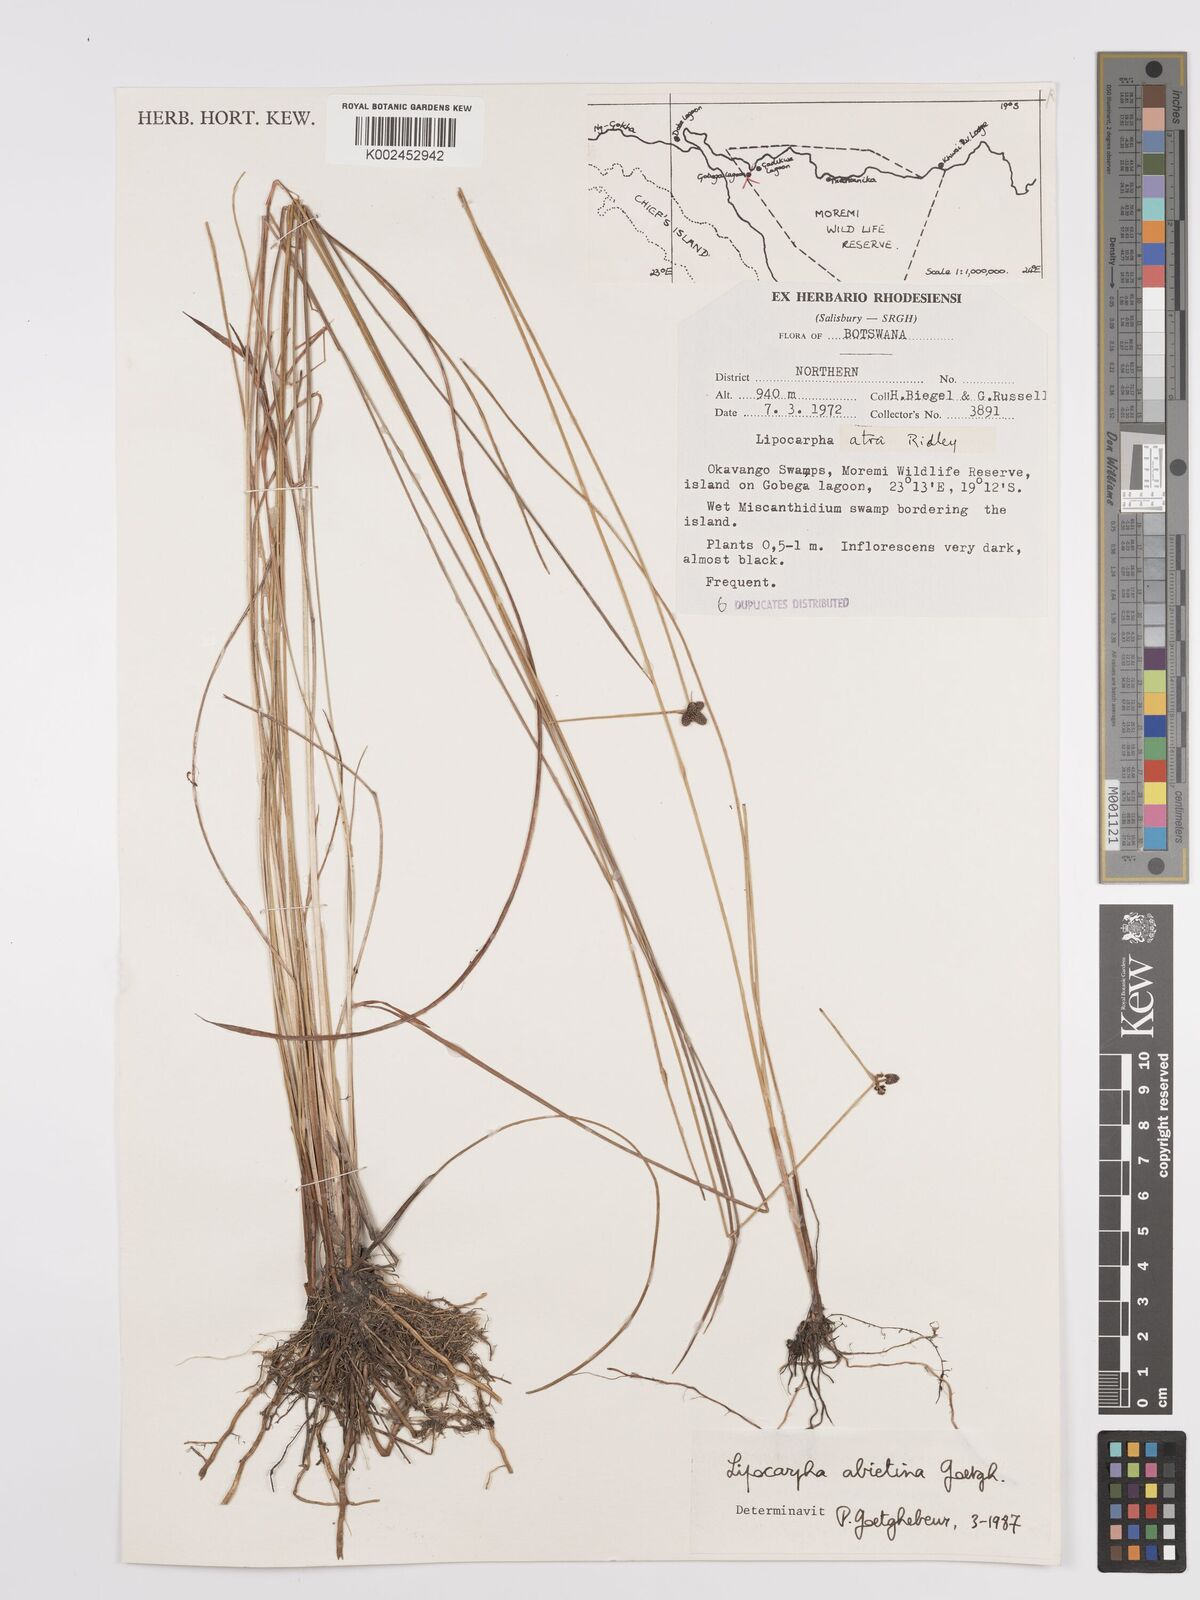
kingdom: Plantae
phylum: Tracheophyta
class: Liliopsida
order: Poales
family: Cyperaceae
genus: Cyperus
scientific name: Cyperus abietinus
